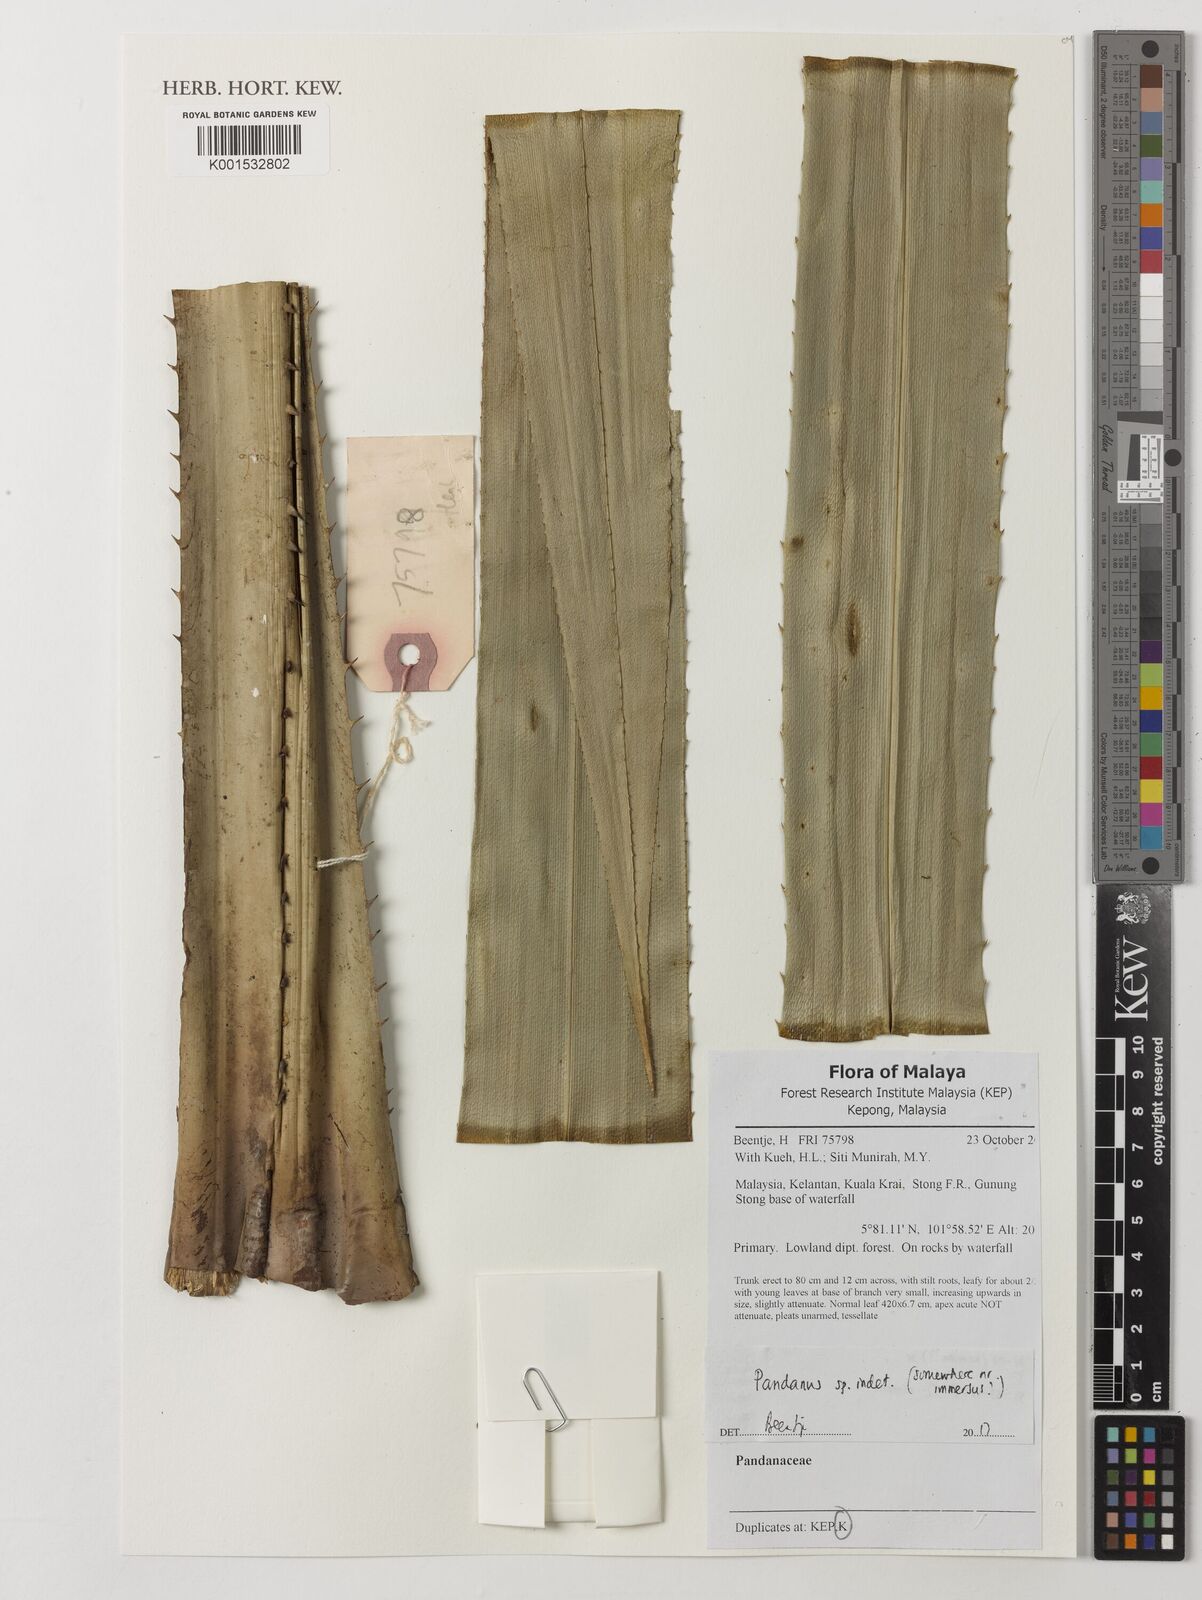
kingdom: Plantae
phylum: Tracheophyta
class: Liliopsida
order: Pandanales
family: Pandanaceae
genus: Pandanus
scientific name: Pandanus
